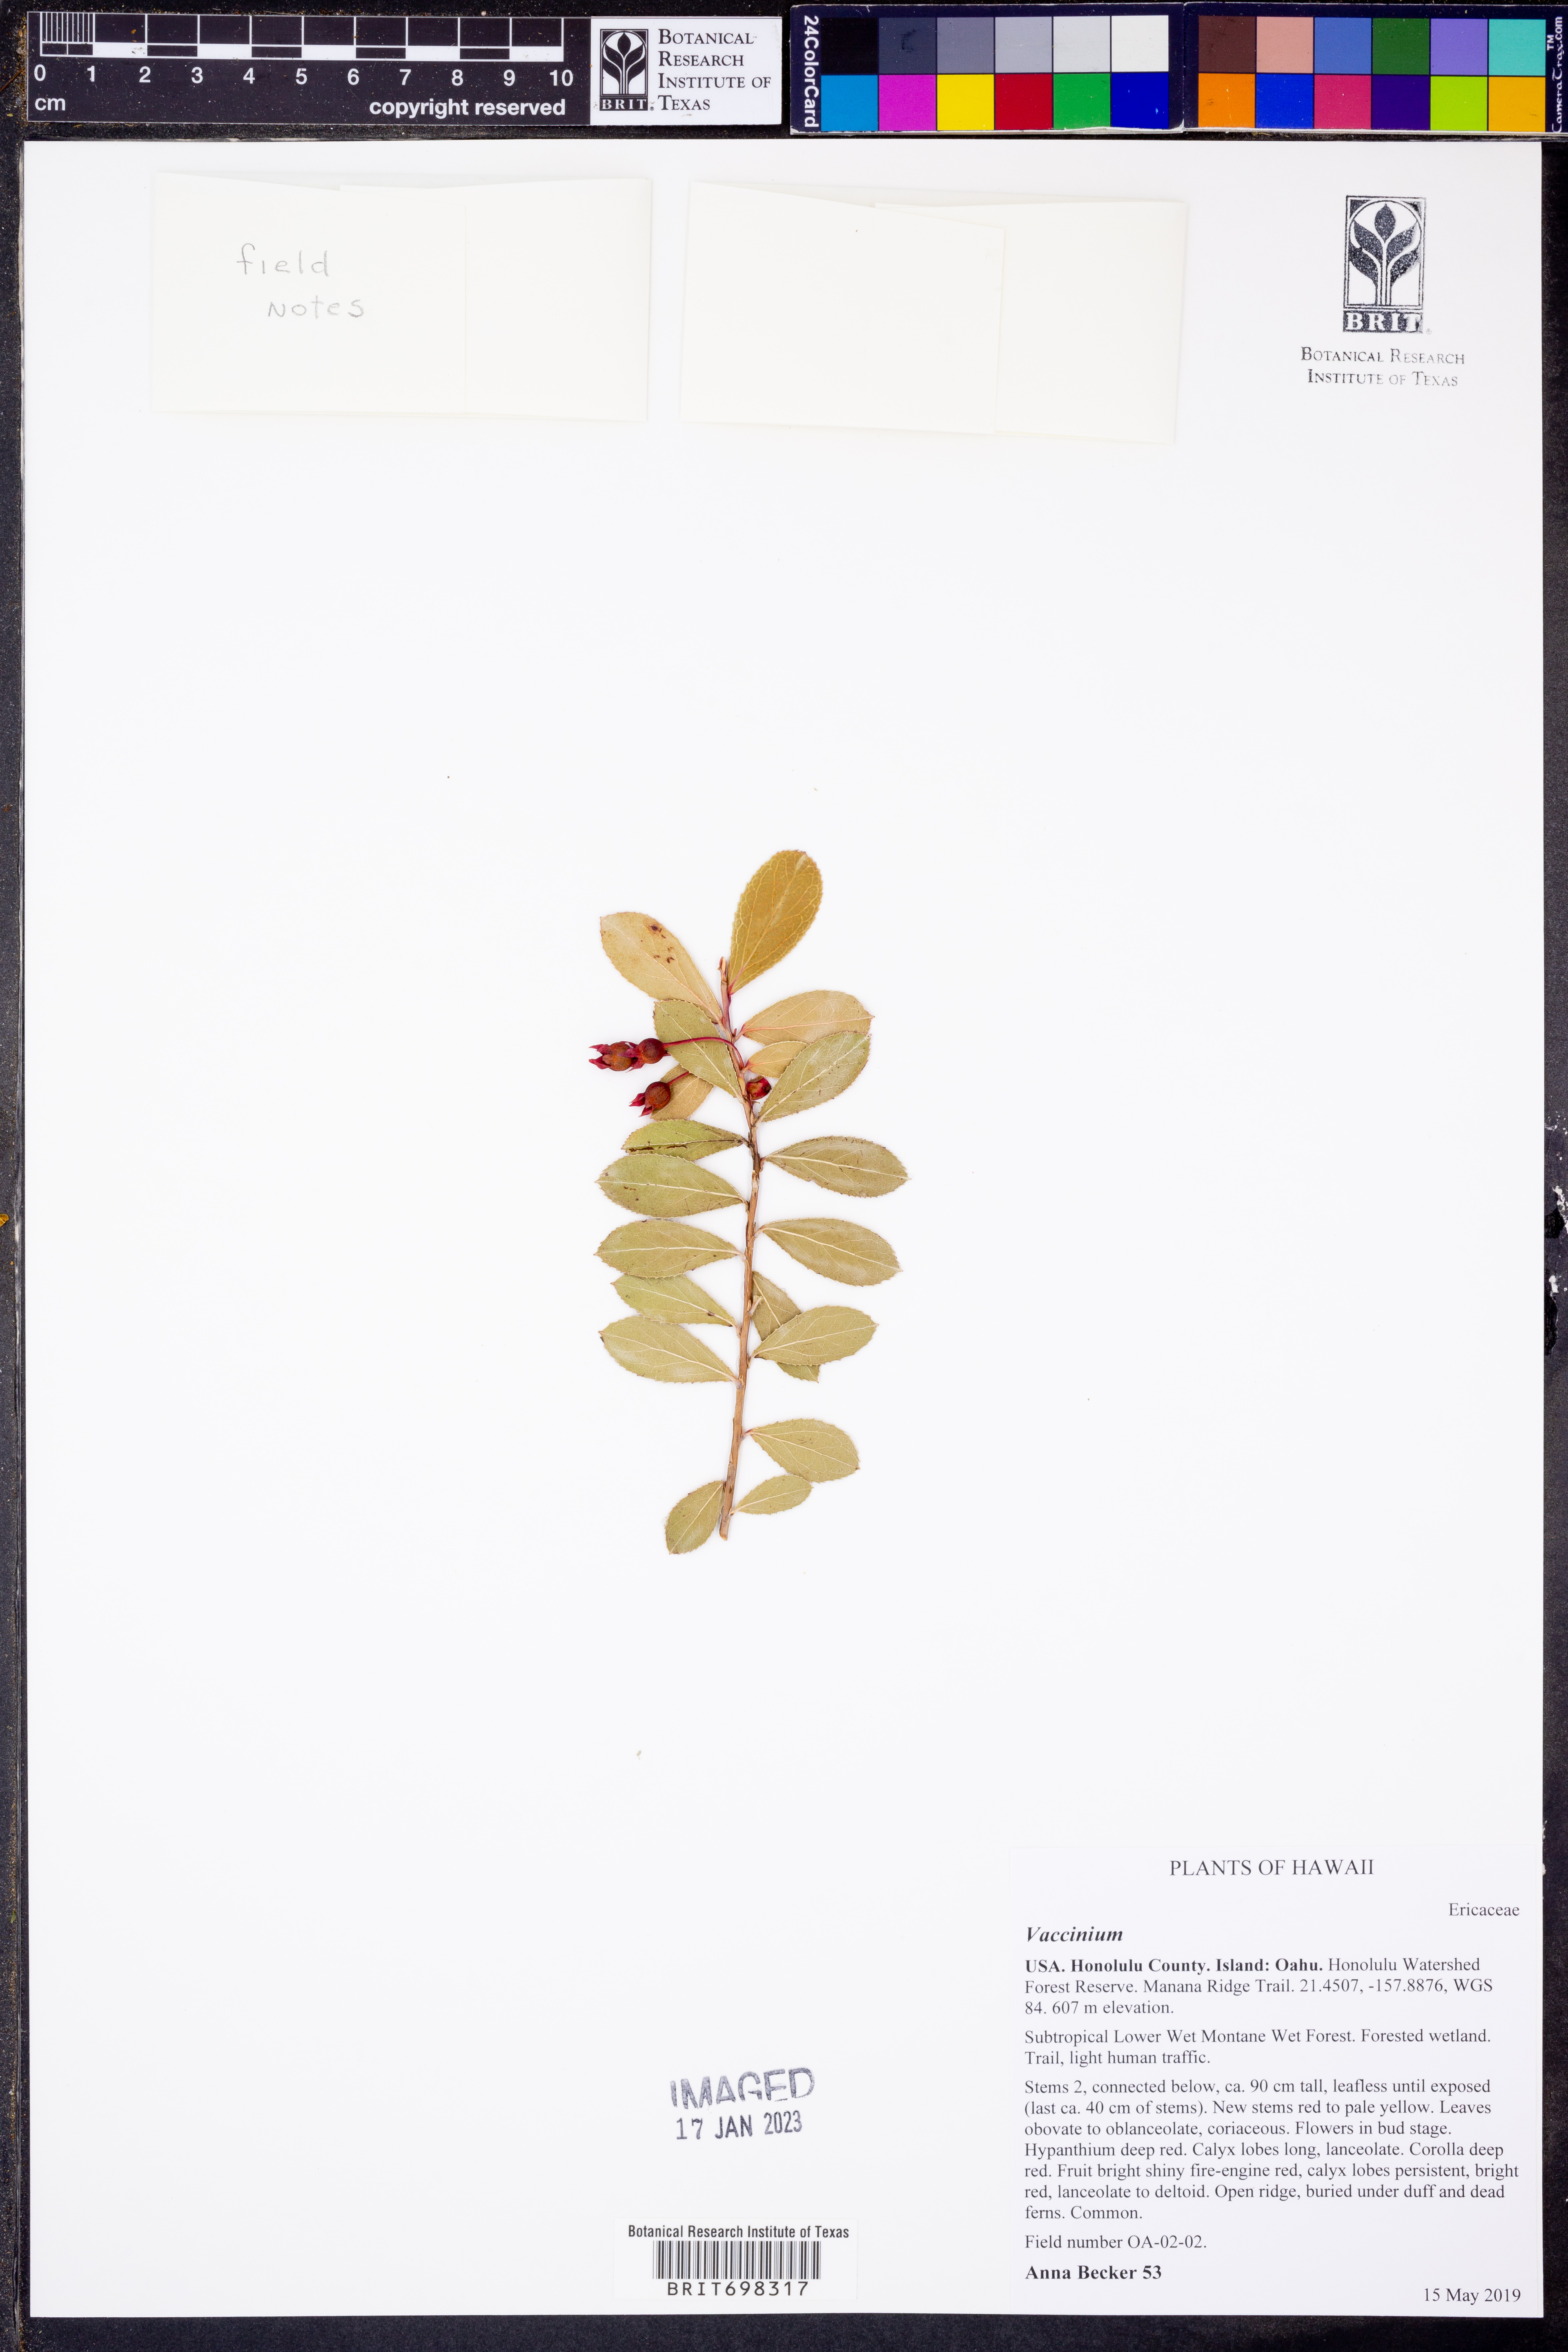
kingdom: Plantae
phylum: Tracheophyta
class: Magnoliopsida
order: Ericales
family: Ericaceae
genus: Vaccinium
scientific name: Vaccinium
